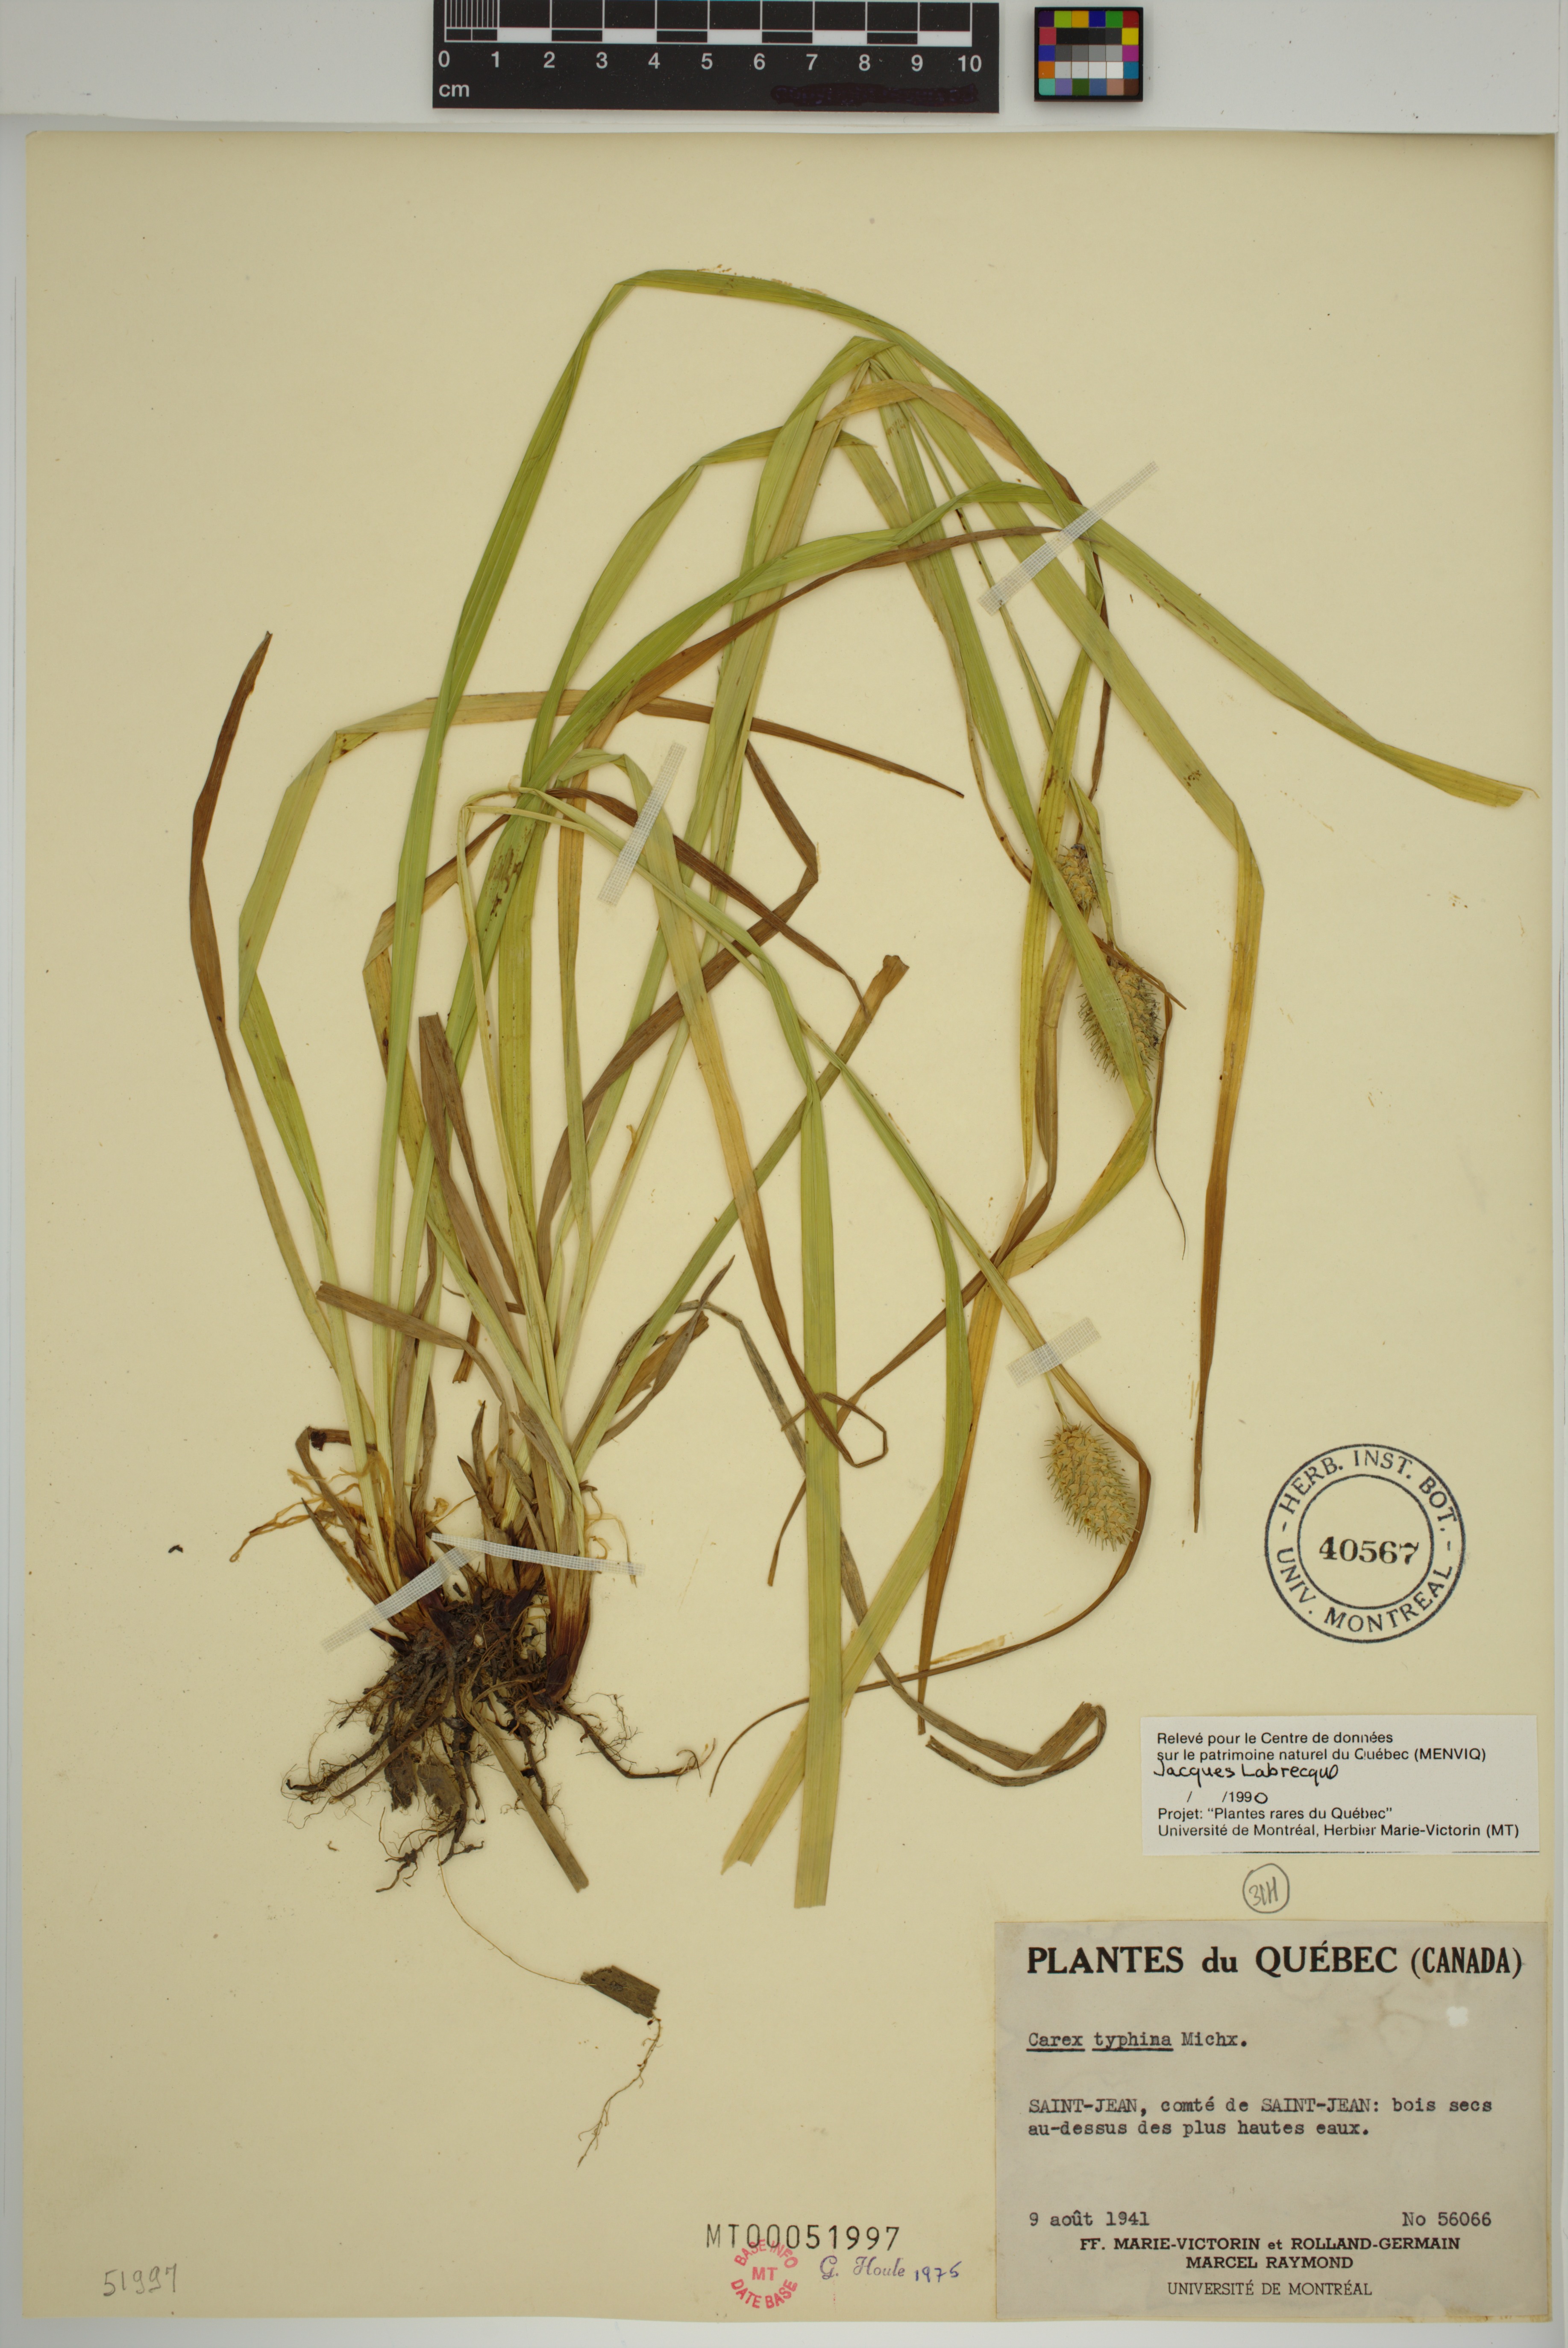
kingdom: Plantae
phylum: Tracheophyta
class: Liliopsida
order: Poales
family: Cyperaceae
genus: Carex
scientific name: Carex typhina
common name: Cattail sedge
